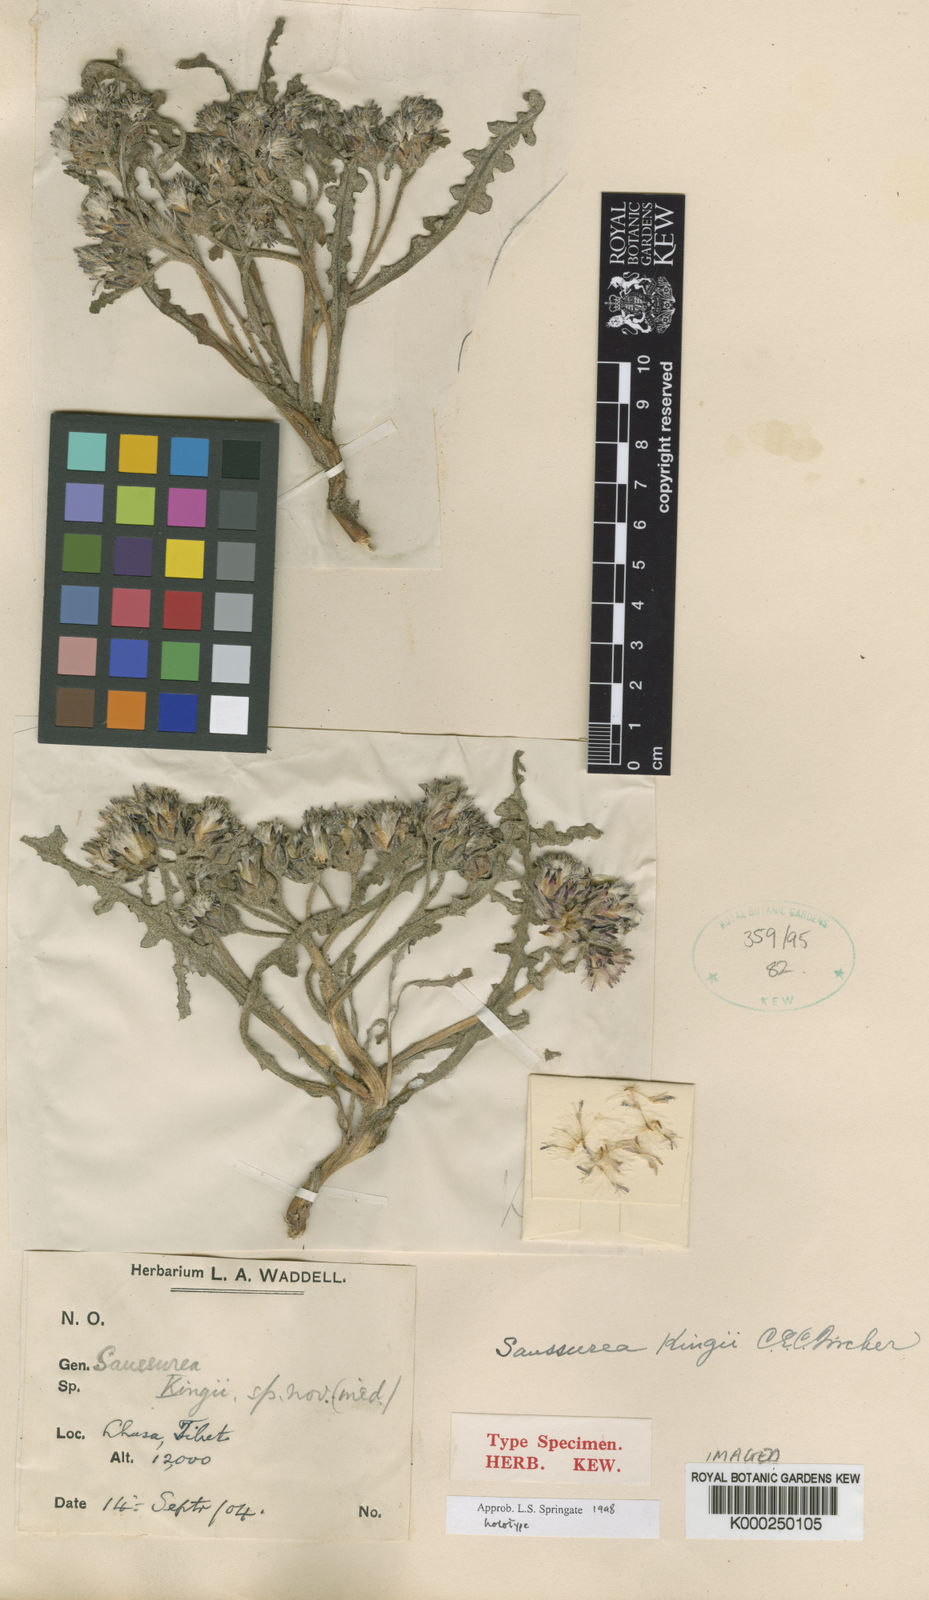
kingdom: Plantae
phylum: Tracheophyta
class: Magnoliopsida
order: Asterales
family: Asteraceae
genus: Saussurea
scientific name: Saussurea kingii
